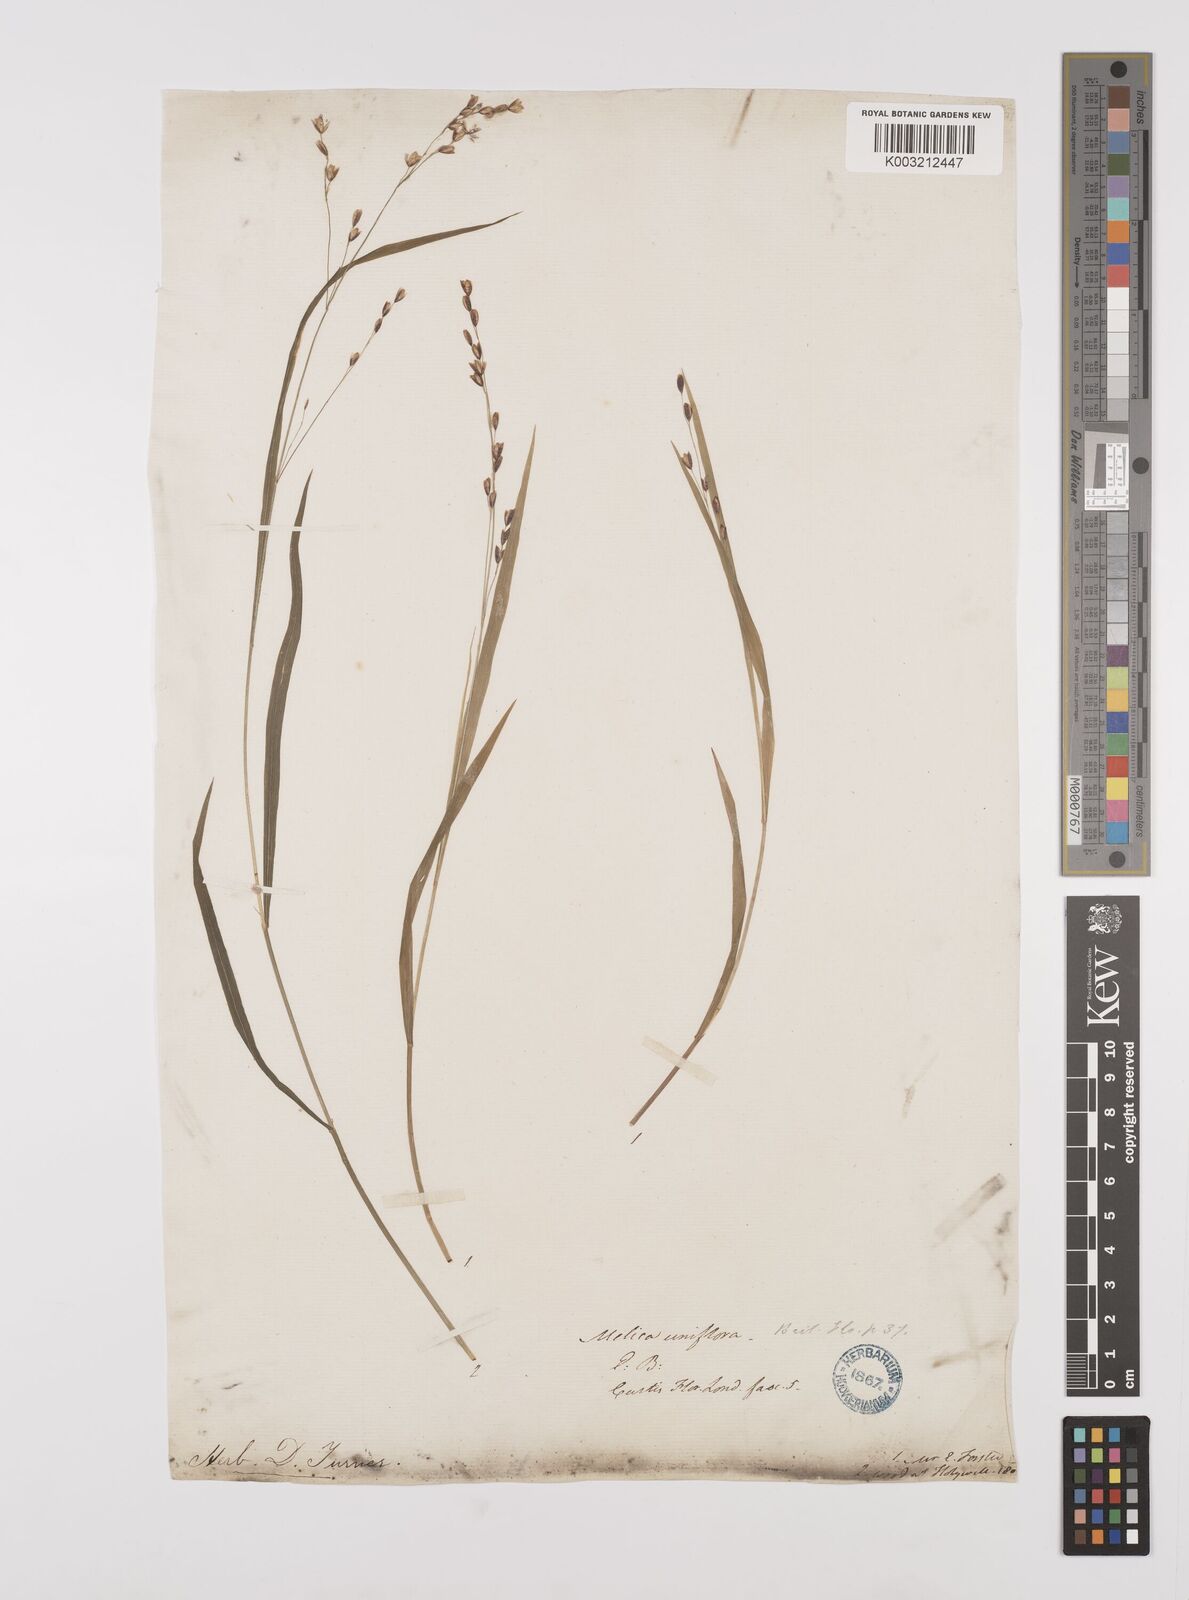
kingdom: Plantae
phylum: Tracheophyta
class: Liliopsida
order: Poales
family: Poaceae
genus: Melica
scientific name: Melica uniflora
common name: Wood melick
